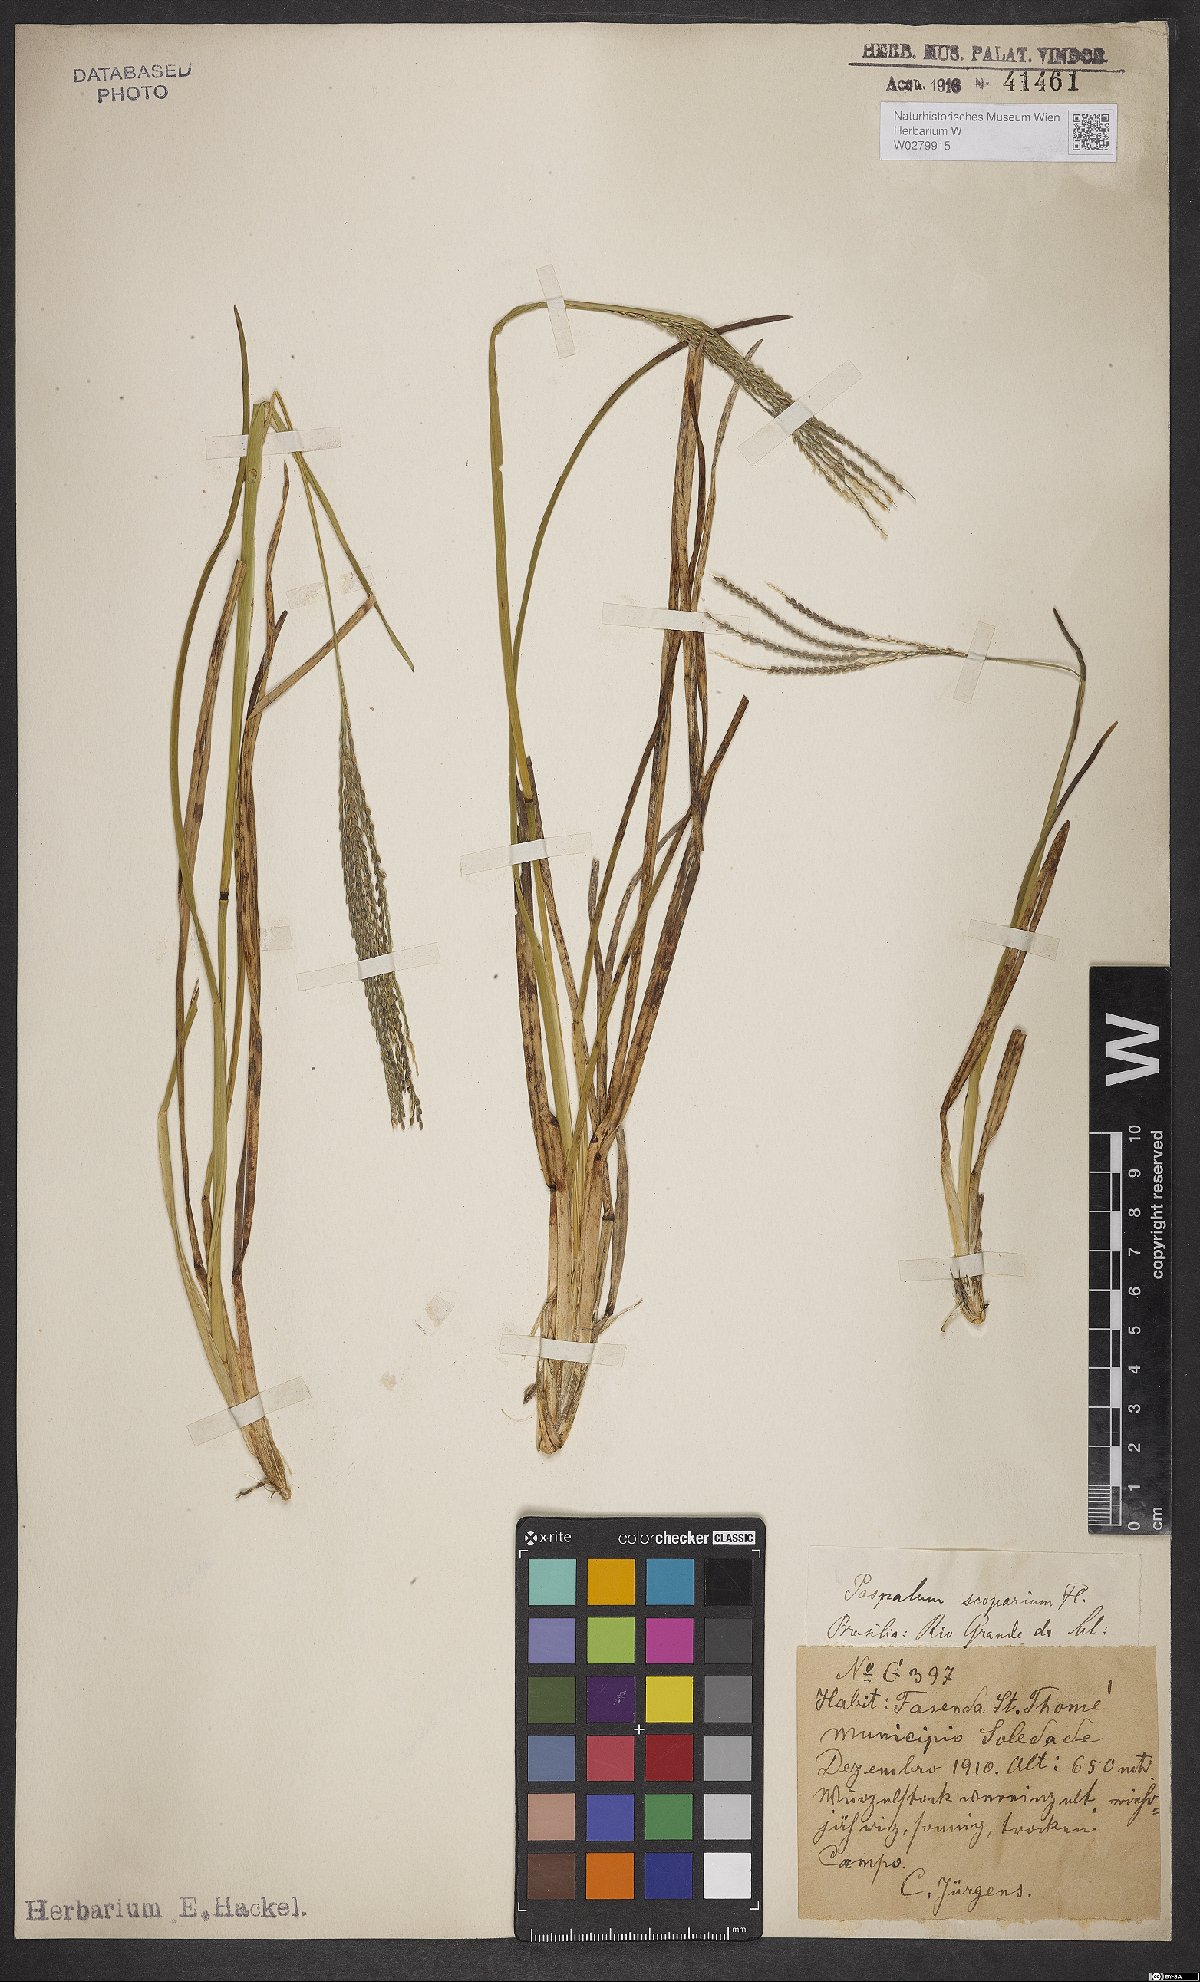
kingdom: Plantae
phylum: Tracheophyta
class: Liliopsida
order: Poales
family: Poaceae
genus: Axonopus
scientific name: Axonopus scoparius
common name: Imperial grass
